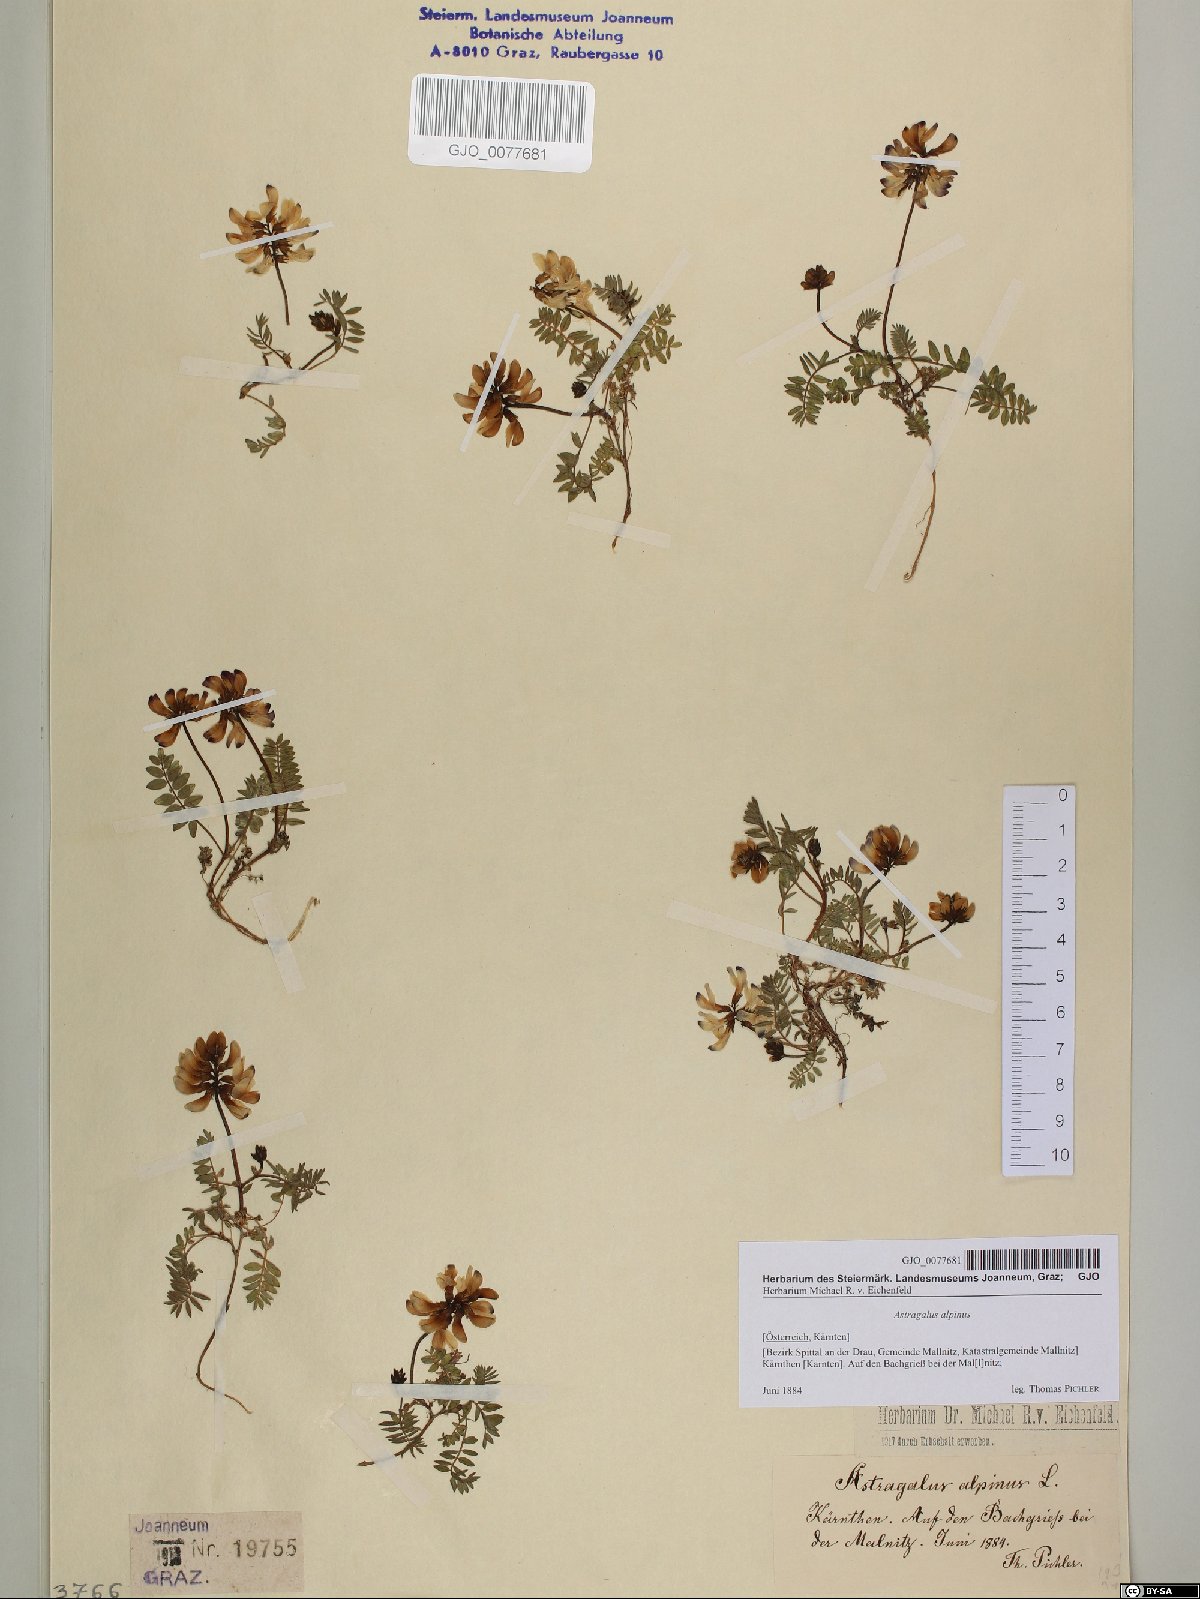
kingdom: Plantae
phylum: Tracheophyta
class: Magnoliopsida
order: Fabales
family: Fabaceae
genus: Astragalus
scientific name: Astragalus alpinus
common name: Alpine milk-vetch
